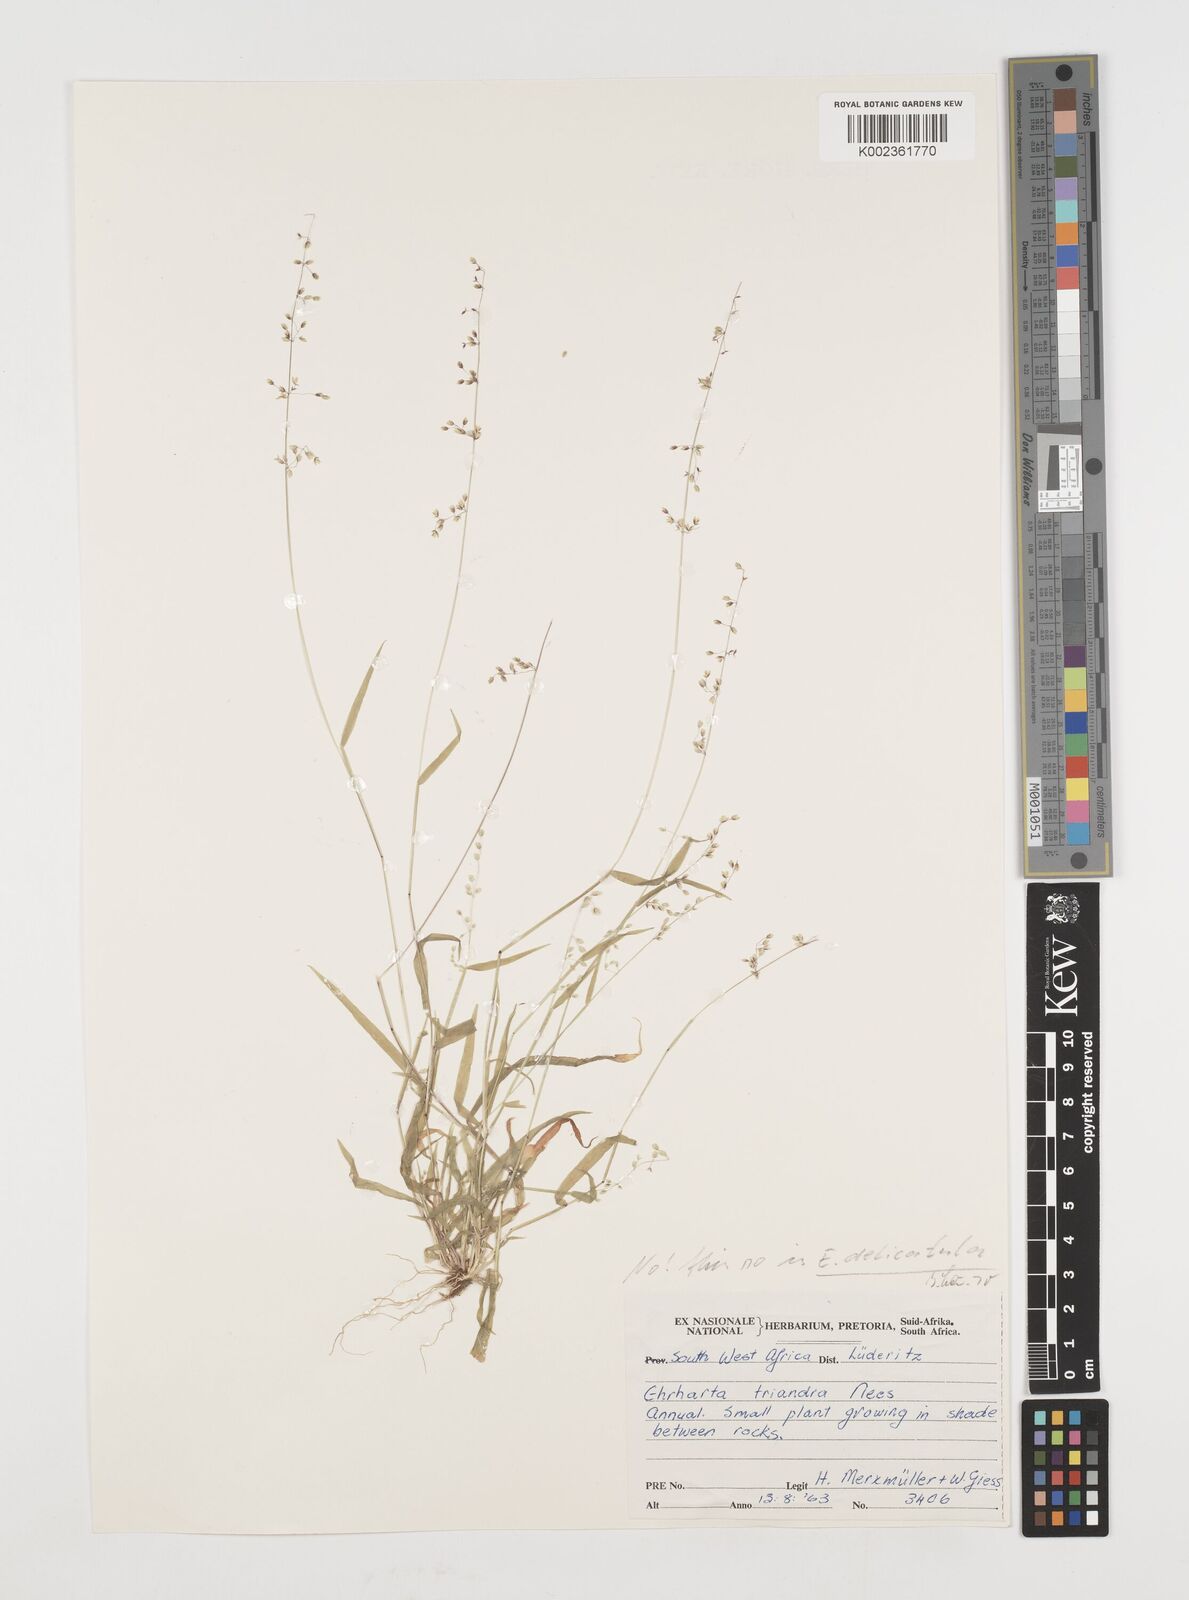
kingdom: Plantae
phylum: Tracheophyta
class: Liliopsida
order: Poales
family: Poaceae
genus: Ehrharta
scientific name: Ehrharta delicatula
